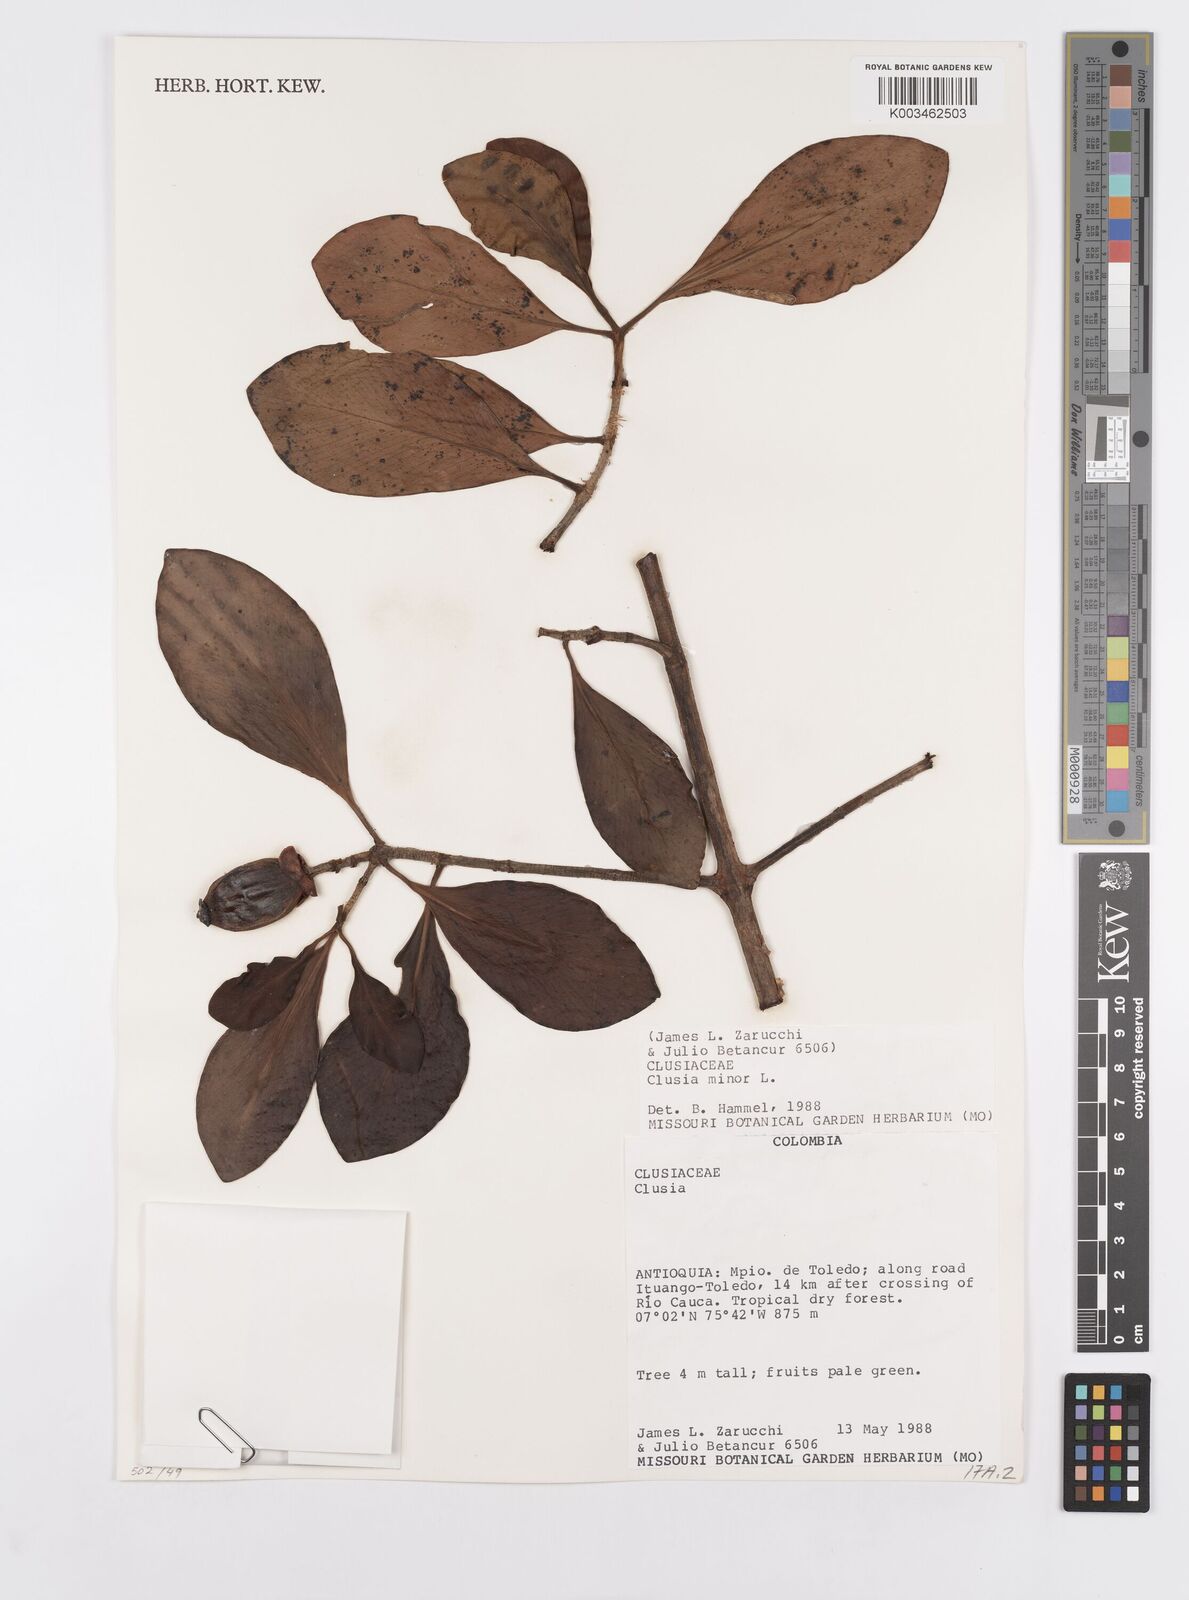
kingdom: Plantae
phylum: Tracheophyta
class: Magnoliopsida
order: Malpighiales
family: Clusiaceae
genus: Clusia
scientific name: Clusia minor
